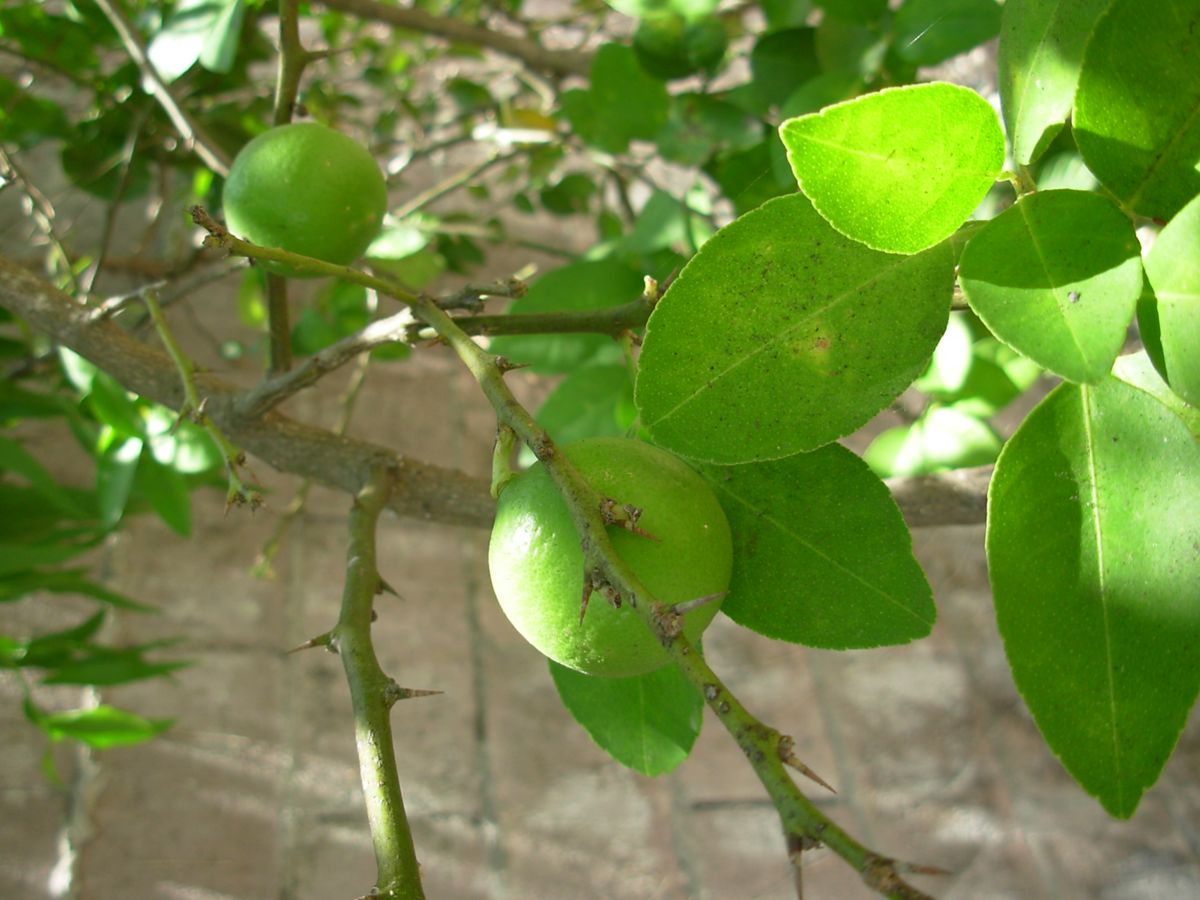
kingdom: Plantae
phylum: Tracheophyta
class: Magnoliopsida
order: Sapindales
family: Rutaceae
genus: Citrus
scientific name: Citrus aurantiifolia
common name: Key lime
